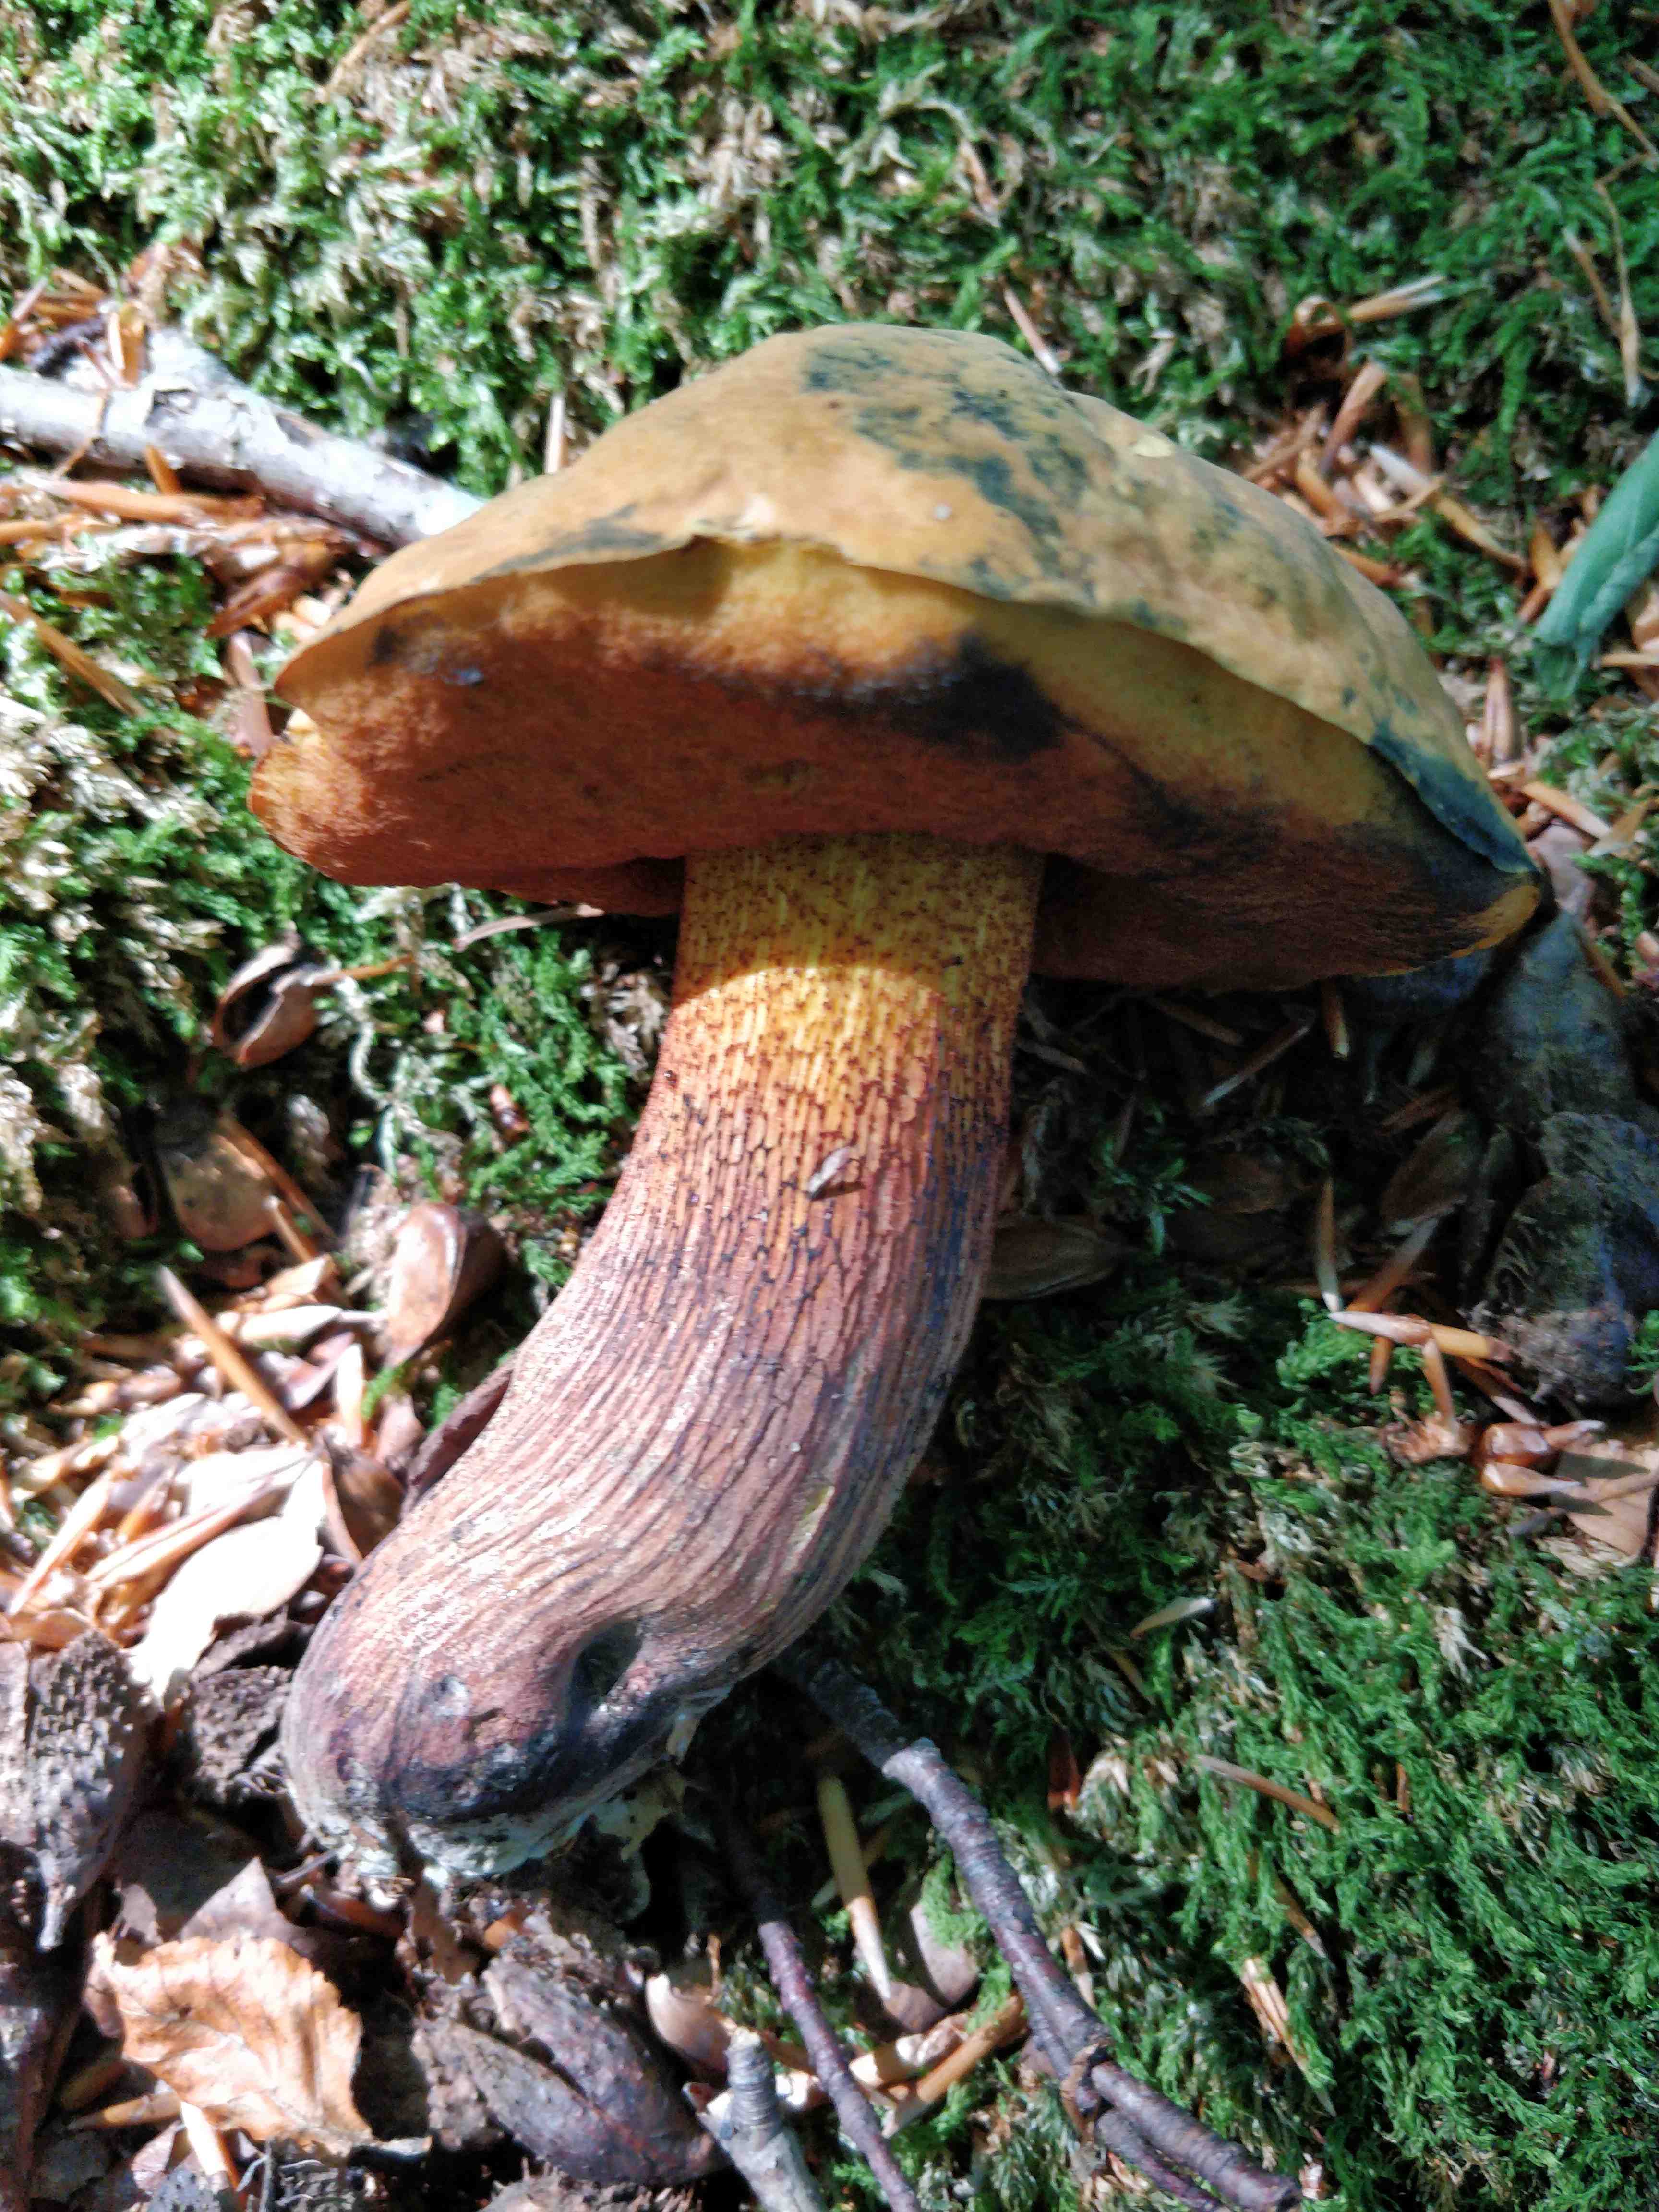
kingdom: Fungi
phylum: Basidiomycota
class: Agaricomycetes
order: Boletales
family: Boletaceae
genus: Suillellus
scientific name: Suillellus luridus
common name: netstokket indigorørhat
